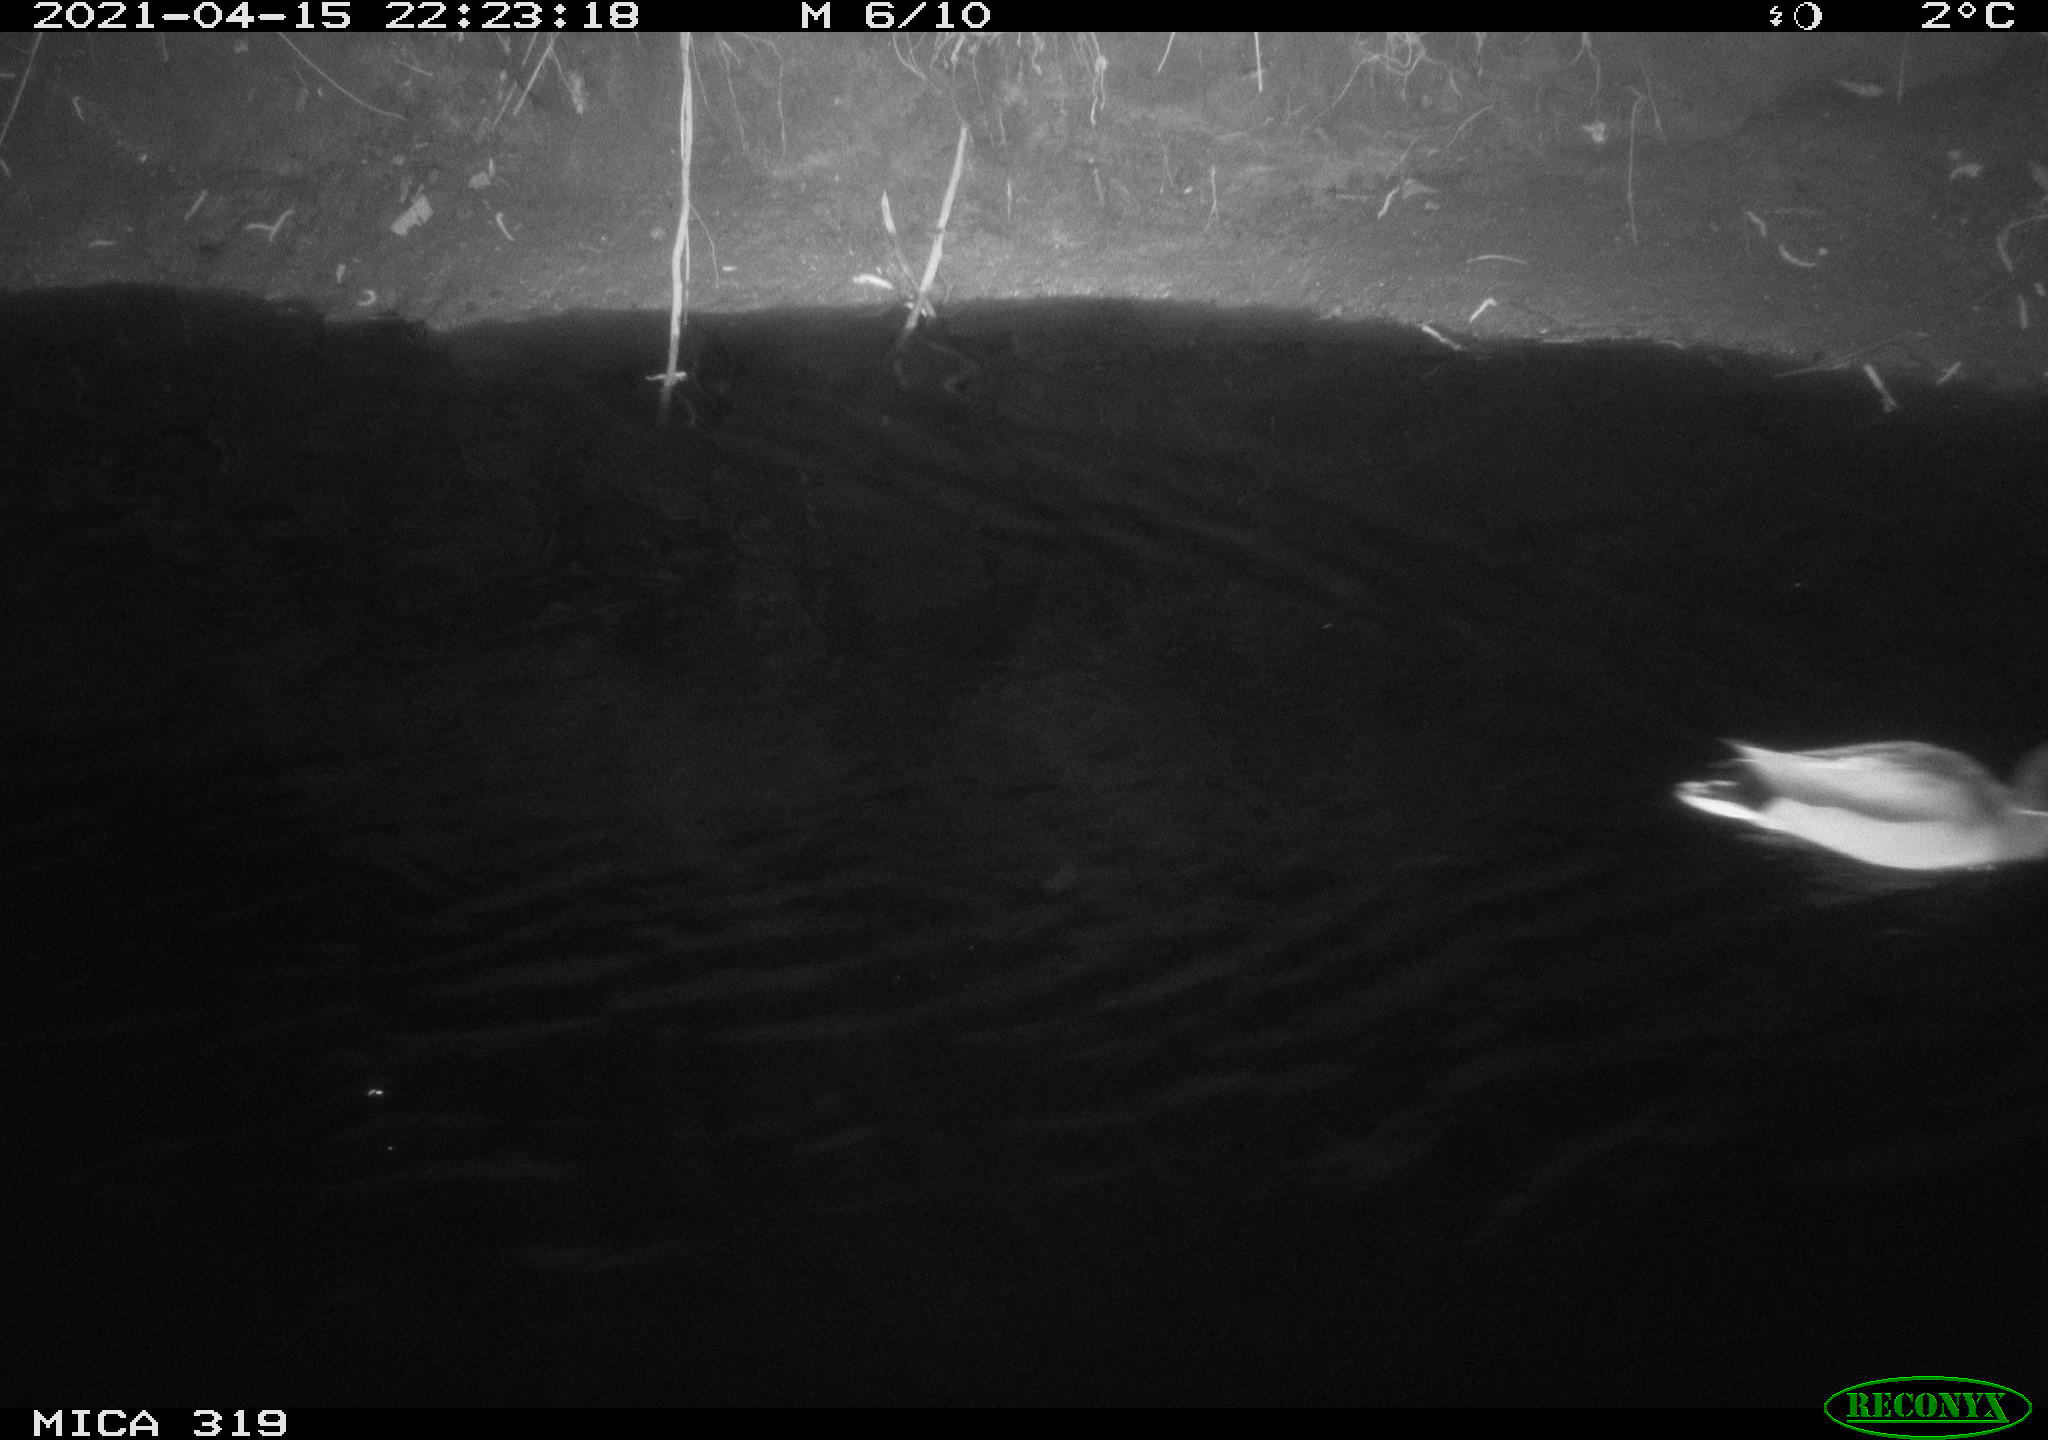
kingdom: Animalia
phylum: Chordata
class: Aves
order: Anseriformes
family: Anatidae
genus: Anas
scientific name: Anas platyrhynchos
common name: Mallard
